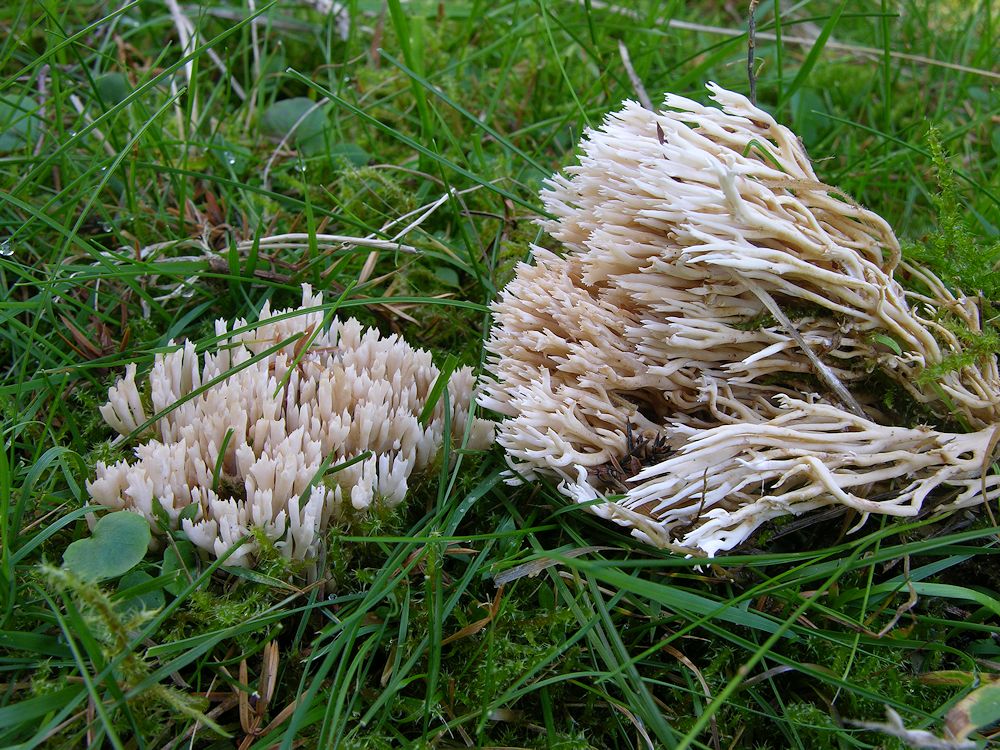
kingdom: Fungi
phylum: Basidiomycota
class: Agaricomycetes
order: Gomphales
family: Gomphaceae
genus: Ramaria
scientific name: Ramaria gracilis
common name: anis-koralsvamp
